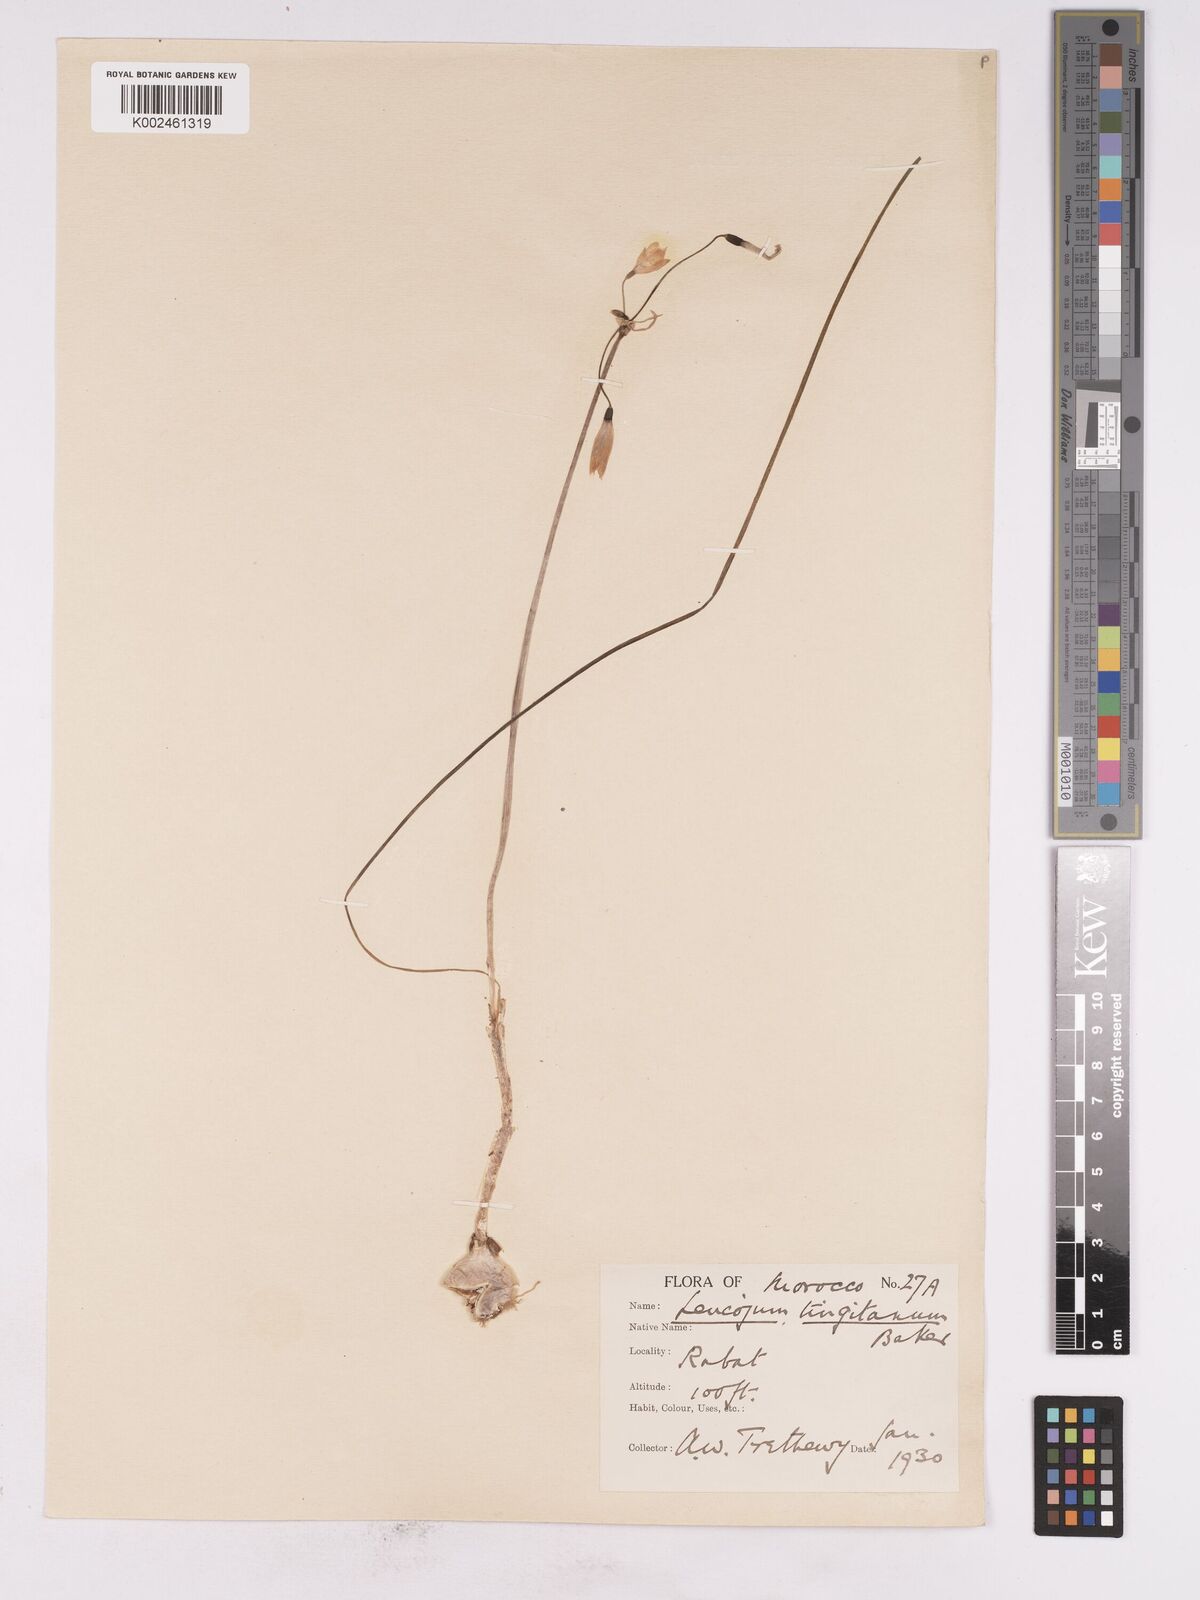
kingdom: Plantae
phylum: Tracheophyta
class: Liliopsida
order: Asparagales
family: Amaryllidaceae
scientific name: Amaryllidaceae
